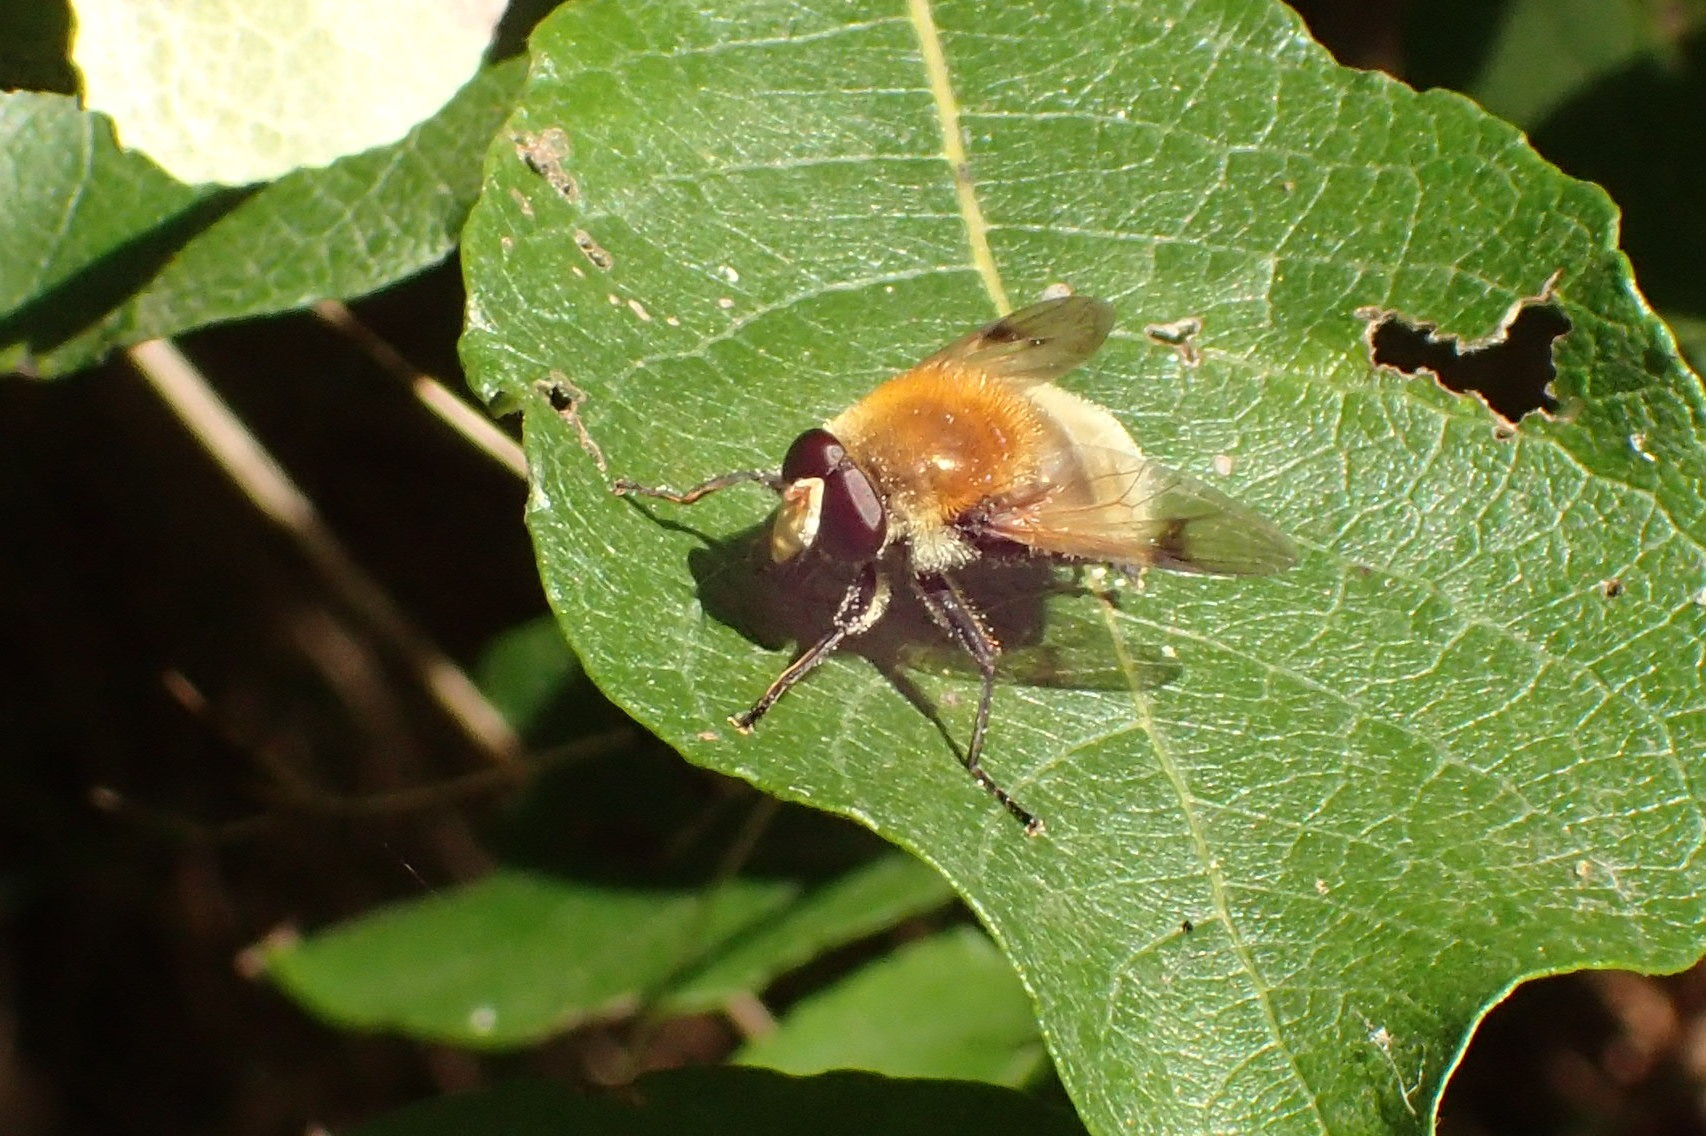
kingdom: Animalia
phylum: Arthropoda
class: Insecta
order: Diptera
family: Syrphidae
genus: Sericomyia
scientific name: Sericomyia superbiens
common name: Brun bjørnesvirreflue
